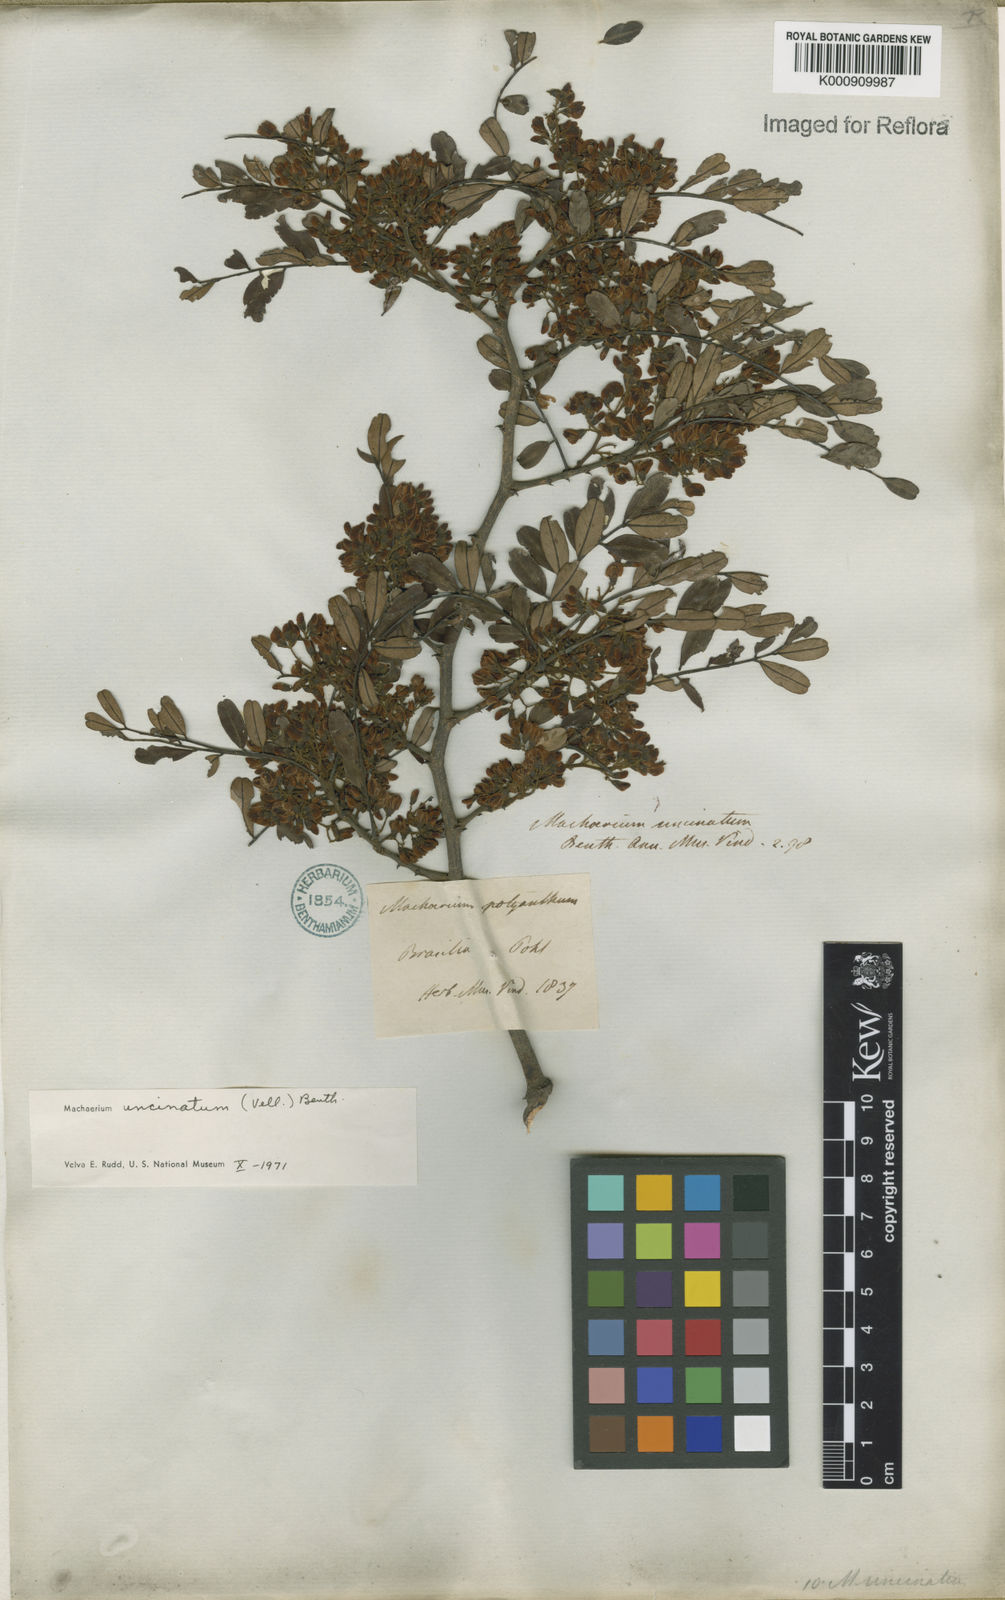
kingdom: Plantae
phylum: Tracheophyta
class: Magnoliopsida
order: Fabales
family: Fabaceae
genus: Machaerium
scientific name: Machaerium uncinatum
